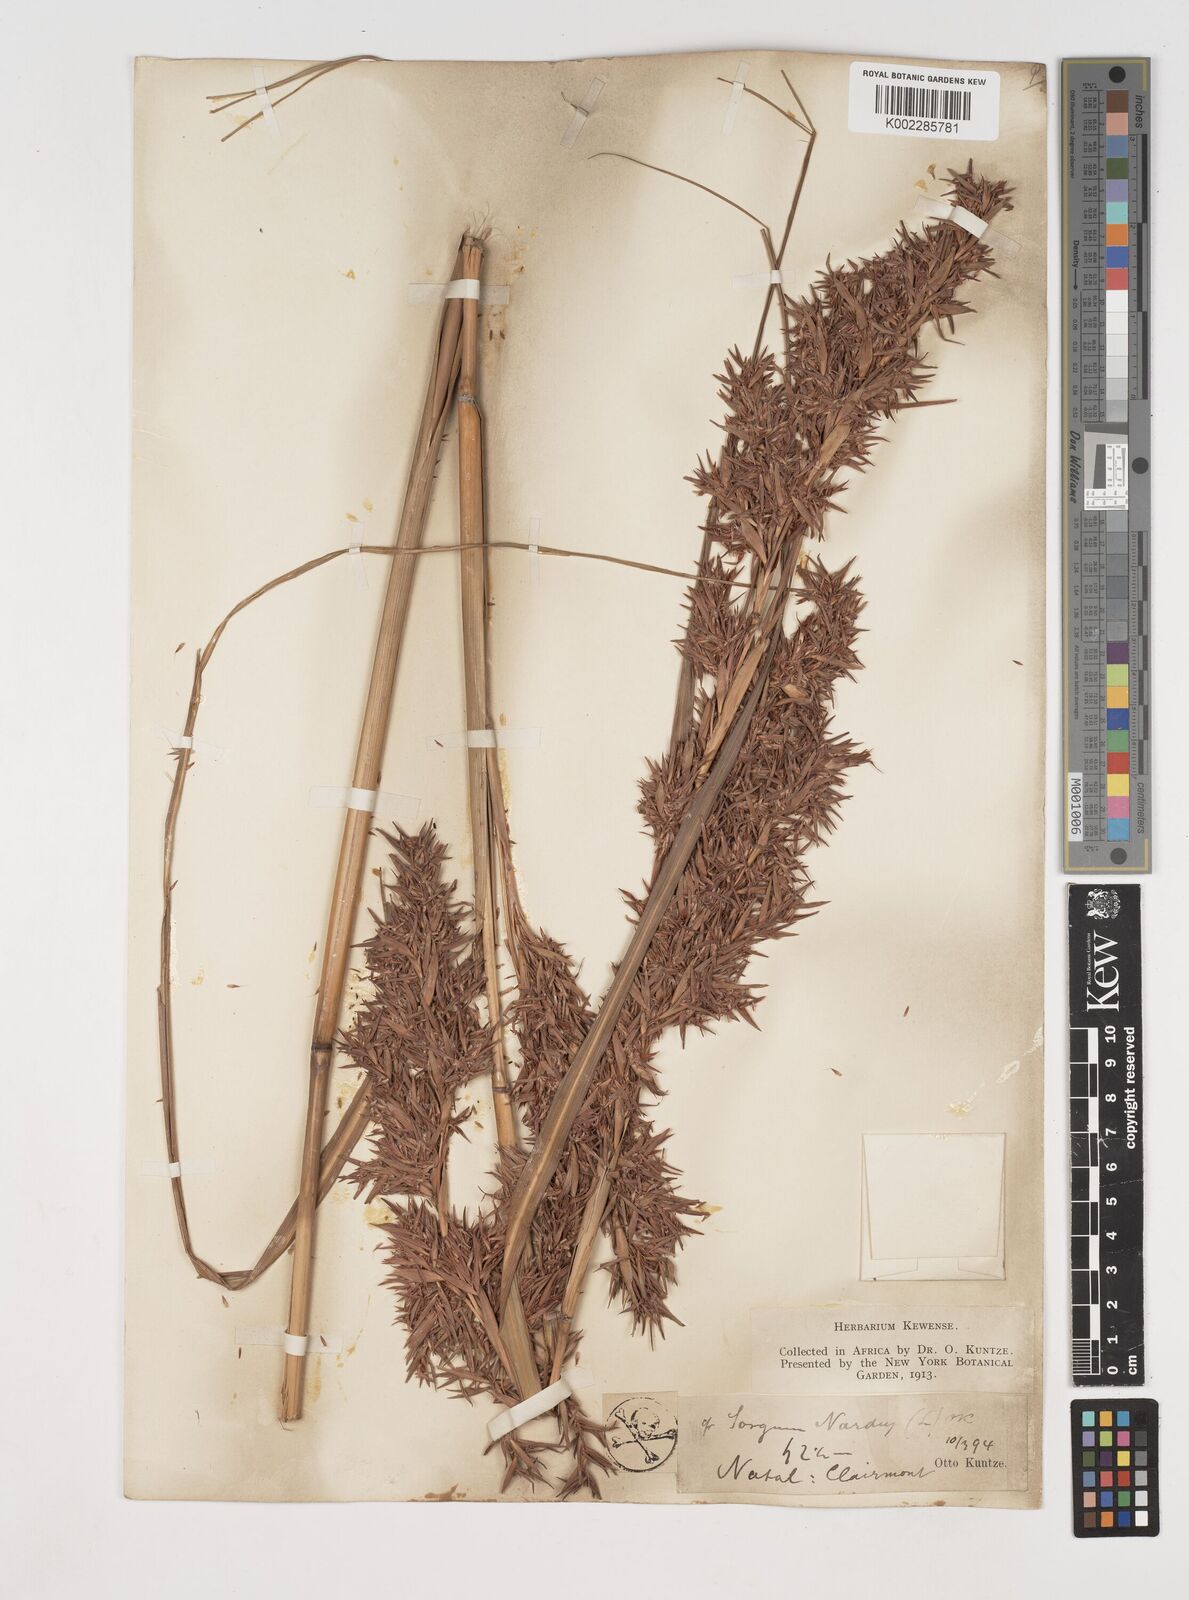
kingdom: Plantae
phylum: Tracheophyta
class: Liliopsida
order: Poales
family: Poaceae
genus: Cymbopogon
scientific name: Cymbopogon nardus
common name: Giant turpentine grass
